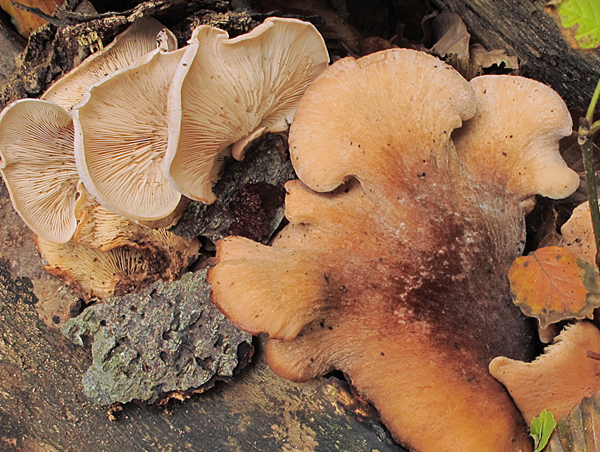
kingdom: Fungi
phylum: Basidiomycota
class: Agaricomycetes
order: Russulales
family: Auriscalpiaceae
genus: Lentinellus
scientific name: Lentinellus ursinus
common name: børstehåret savbladhat
